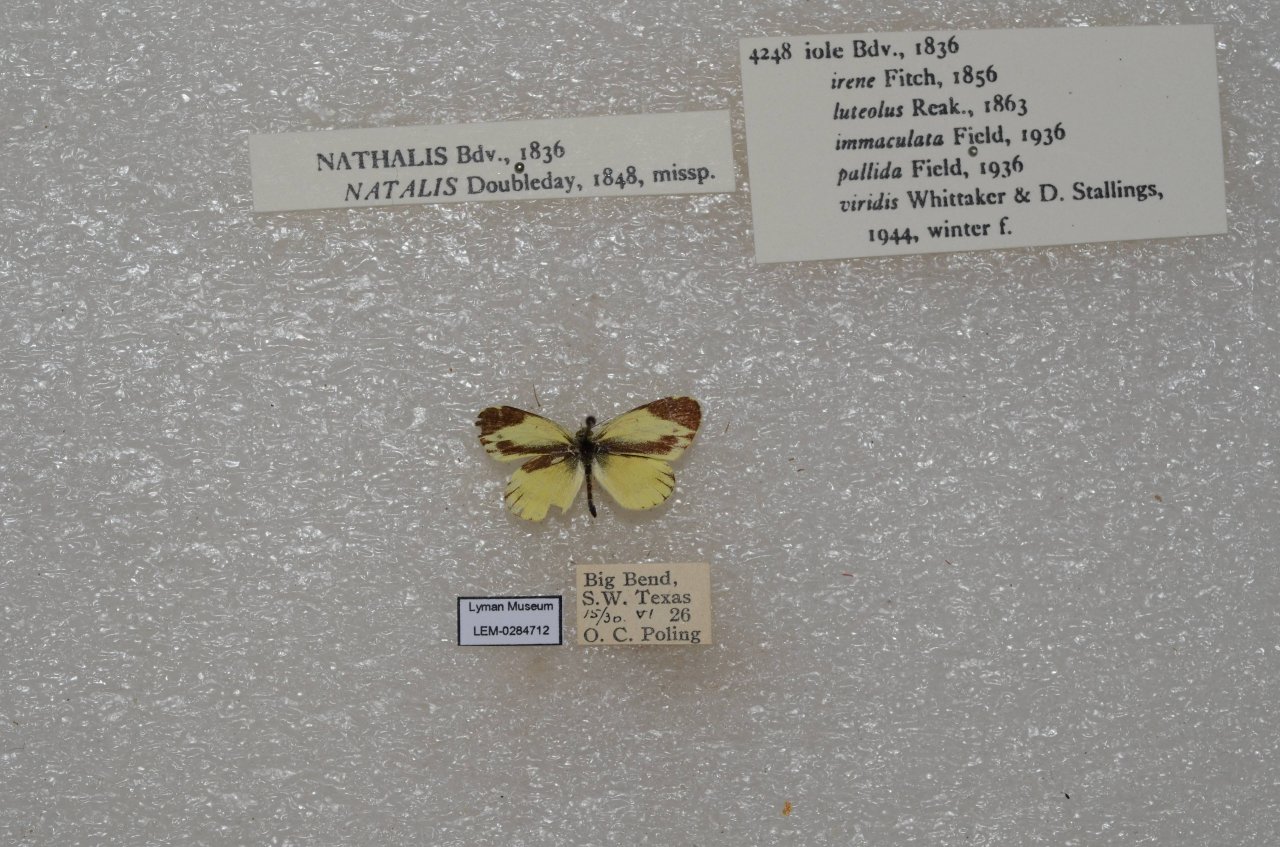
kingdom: Animalia
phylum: Arthropoda
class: Insecta
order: Lepidoptera
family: Pieridae
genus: Nathalis
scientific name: Nathalis iole
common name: Dainty Sulphur
